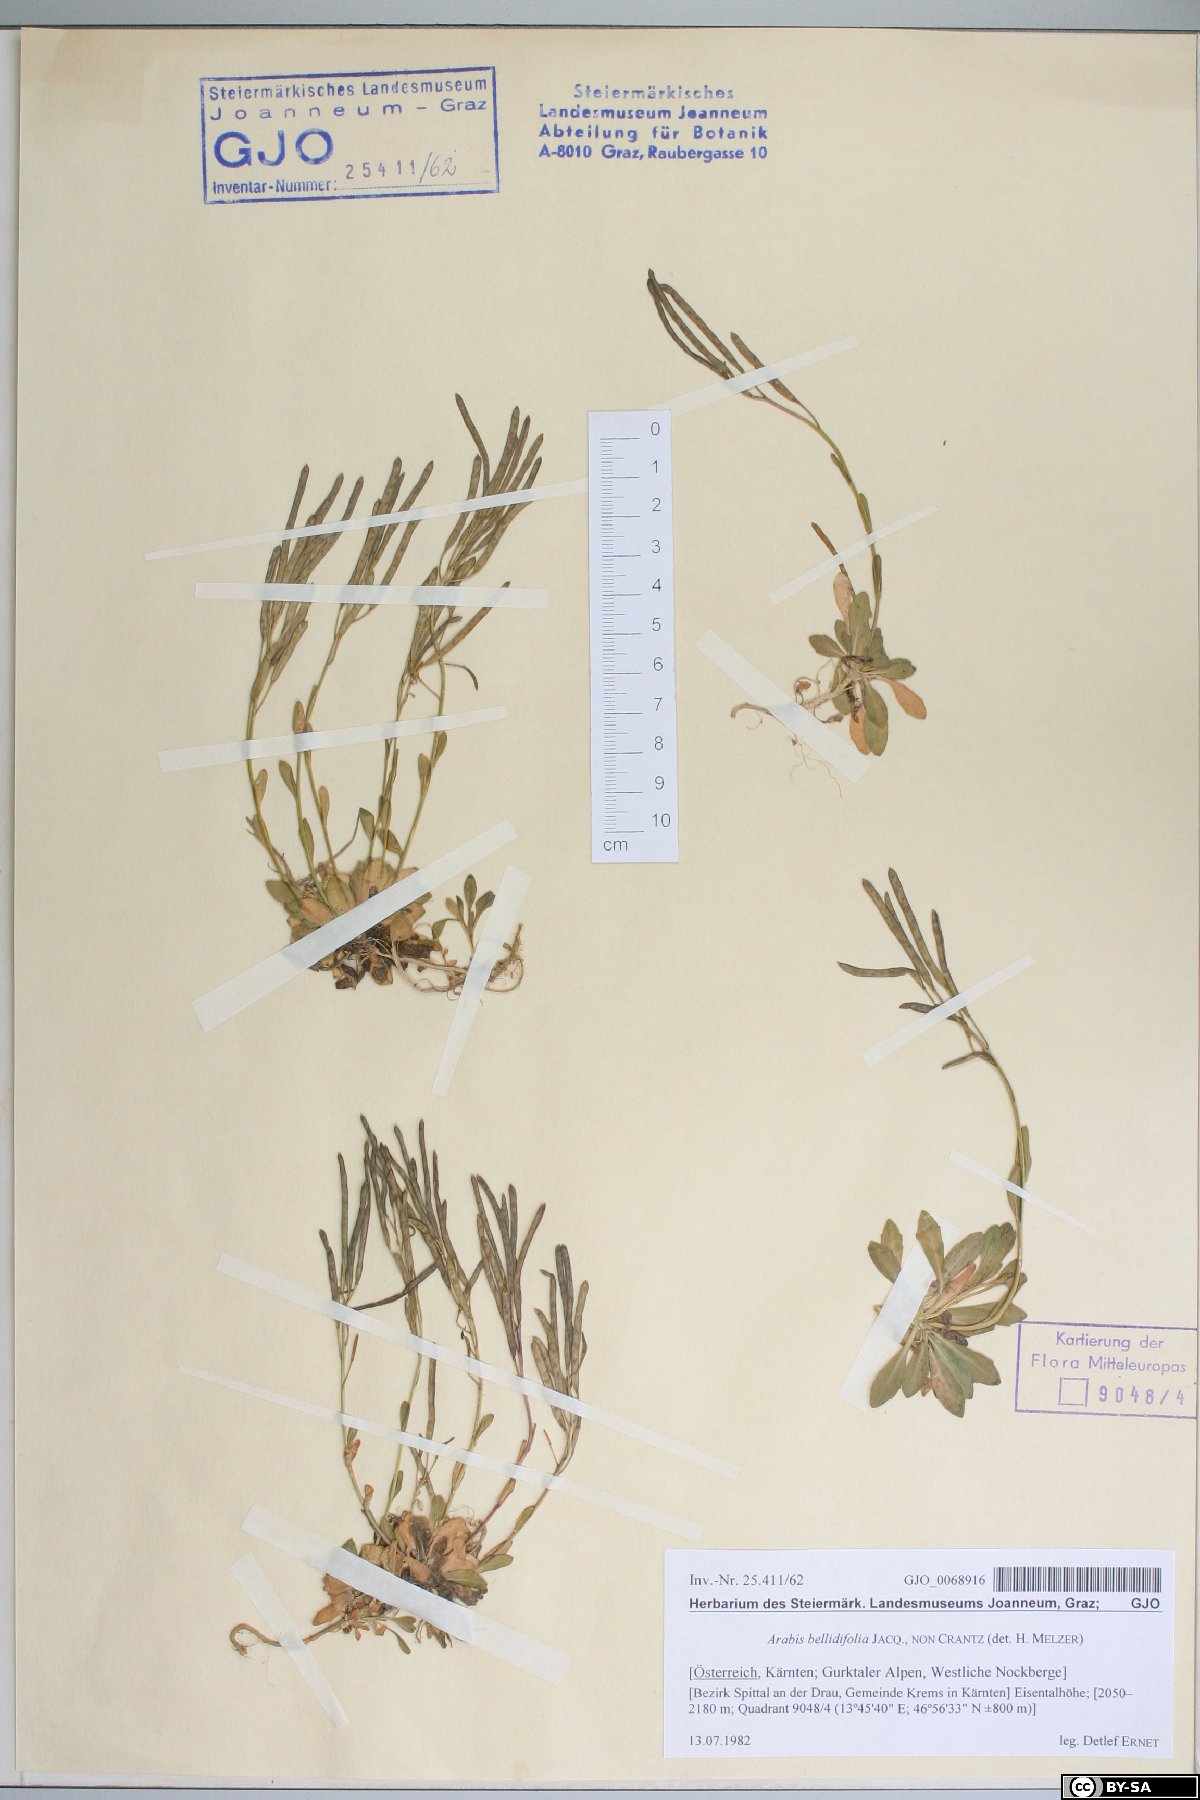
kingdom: Plantae
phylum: Tracheophyta
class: Magnoliopsida
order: Brassicales
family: Brassicaceae
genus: Arabis
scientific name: Arabis soyeri
